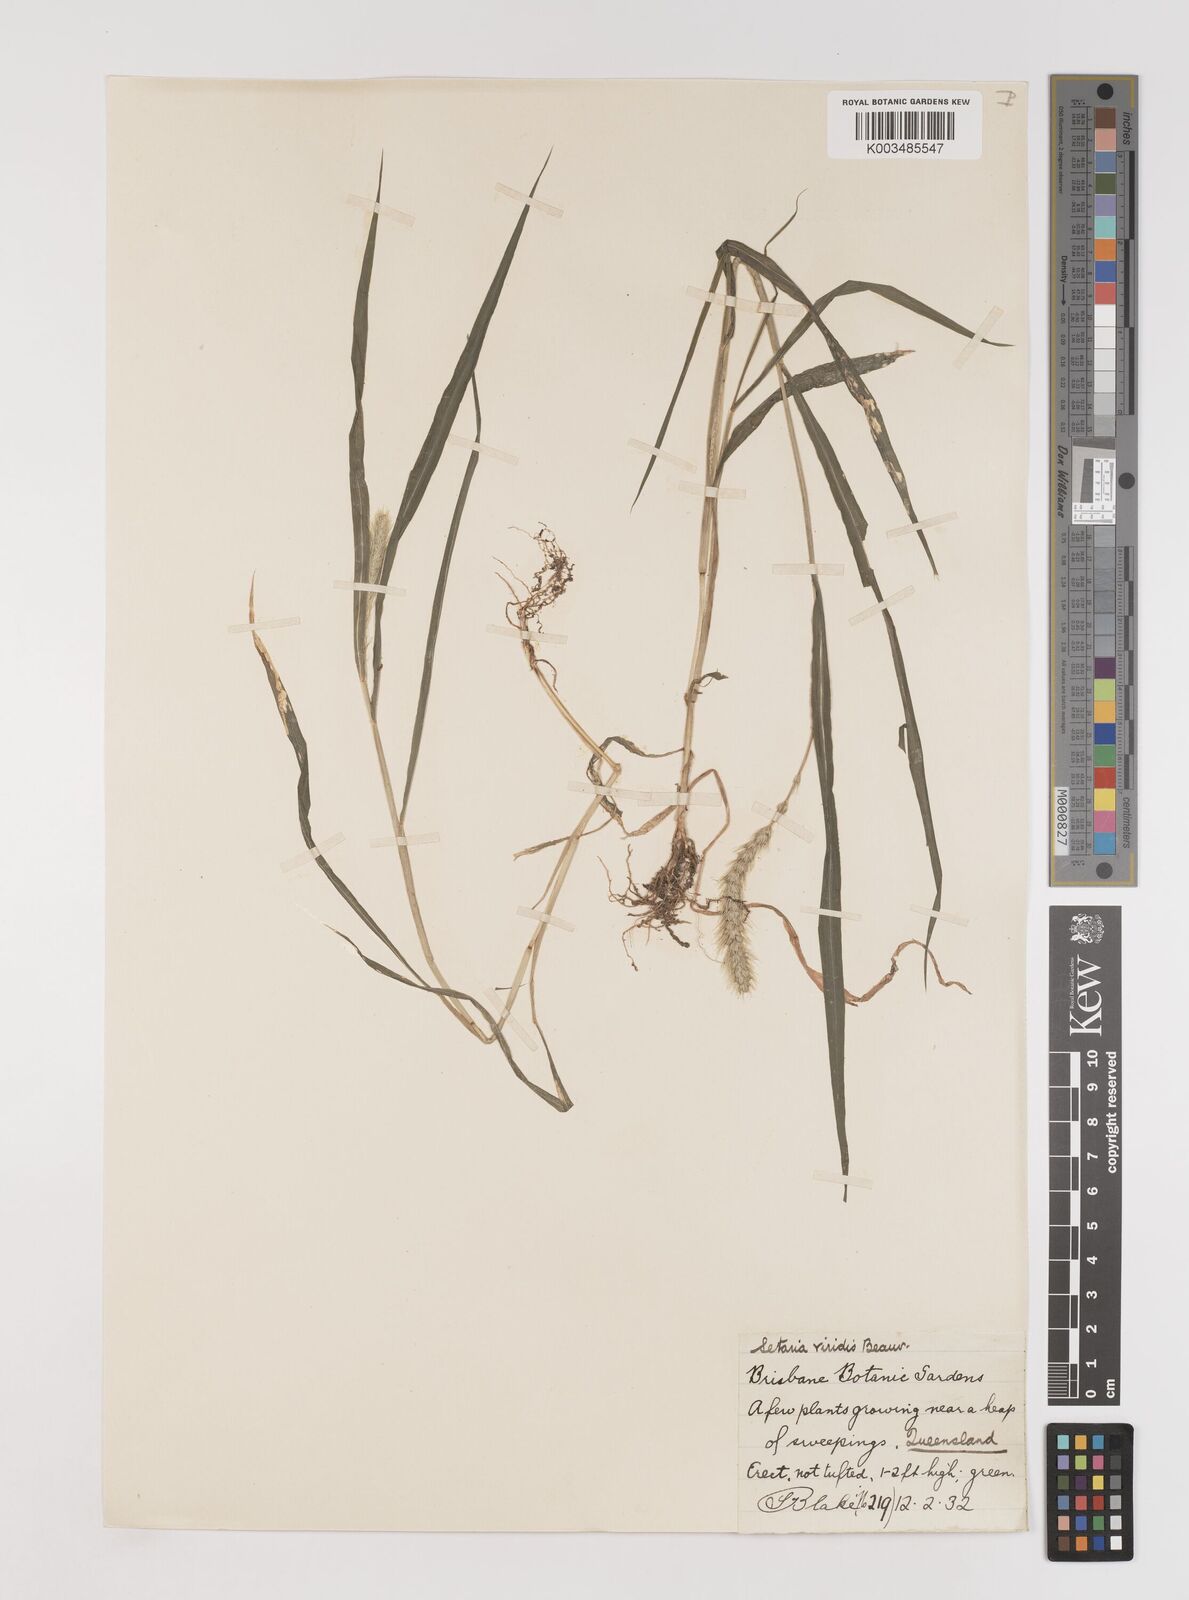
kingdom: Plantae
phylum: Tracheophyta
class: Liliopsida
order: Poales
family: Poaceae
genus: Setaria
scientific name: Setaria viridis
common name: Green bristlegrass
